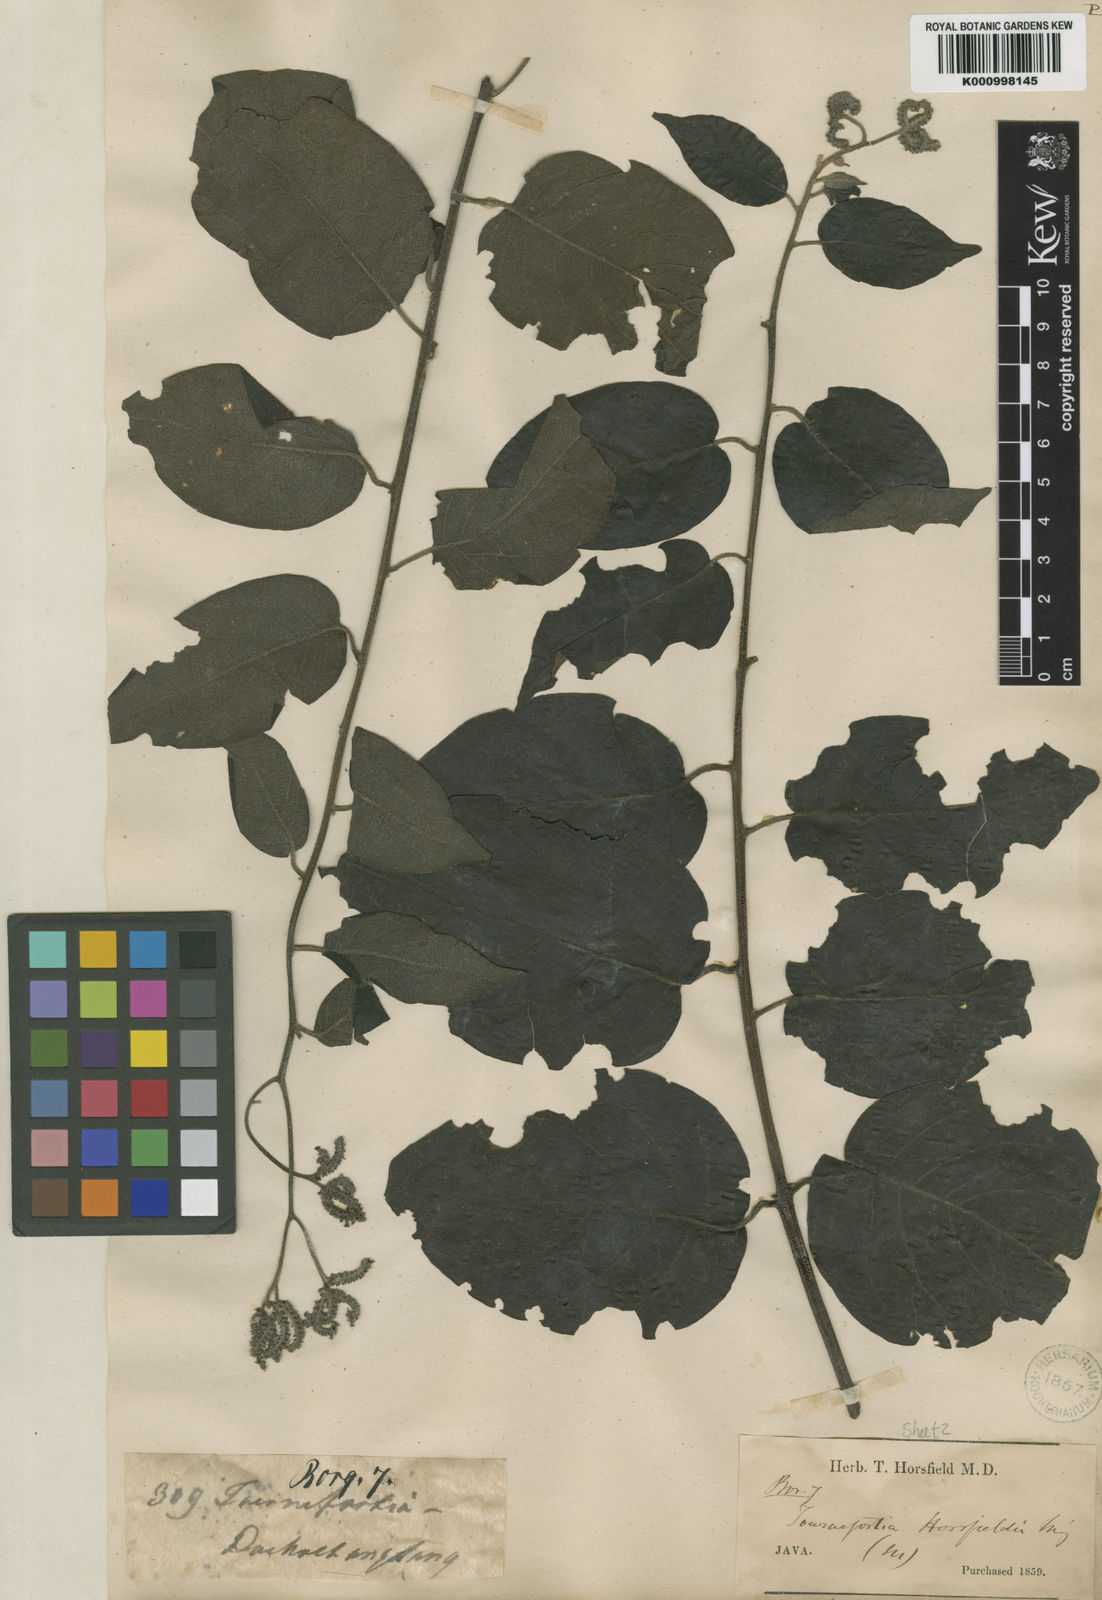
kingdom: Plantae
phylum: Tracheophyta
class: Magnoliopsida
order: Boraginales
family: Heliotropiaceae
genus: Heliotropium
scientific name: Heliotropium sarmentosum
